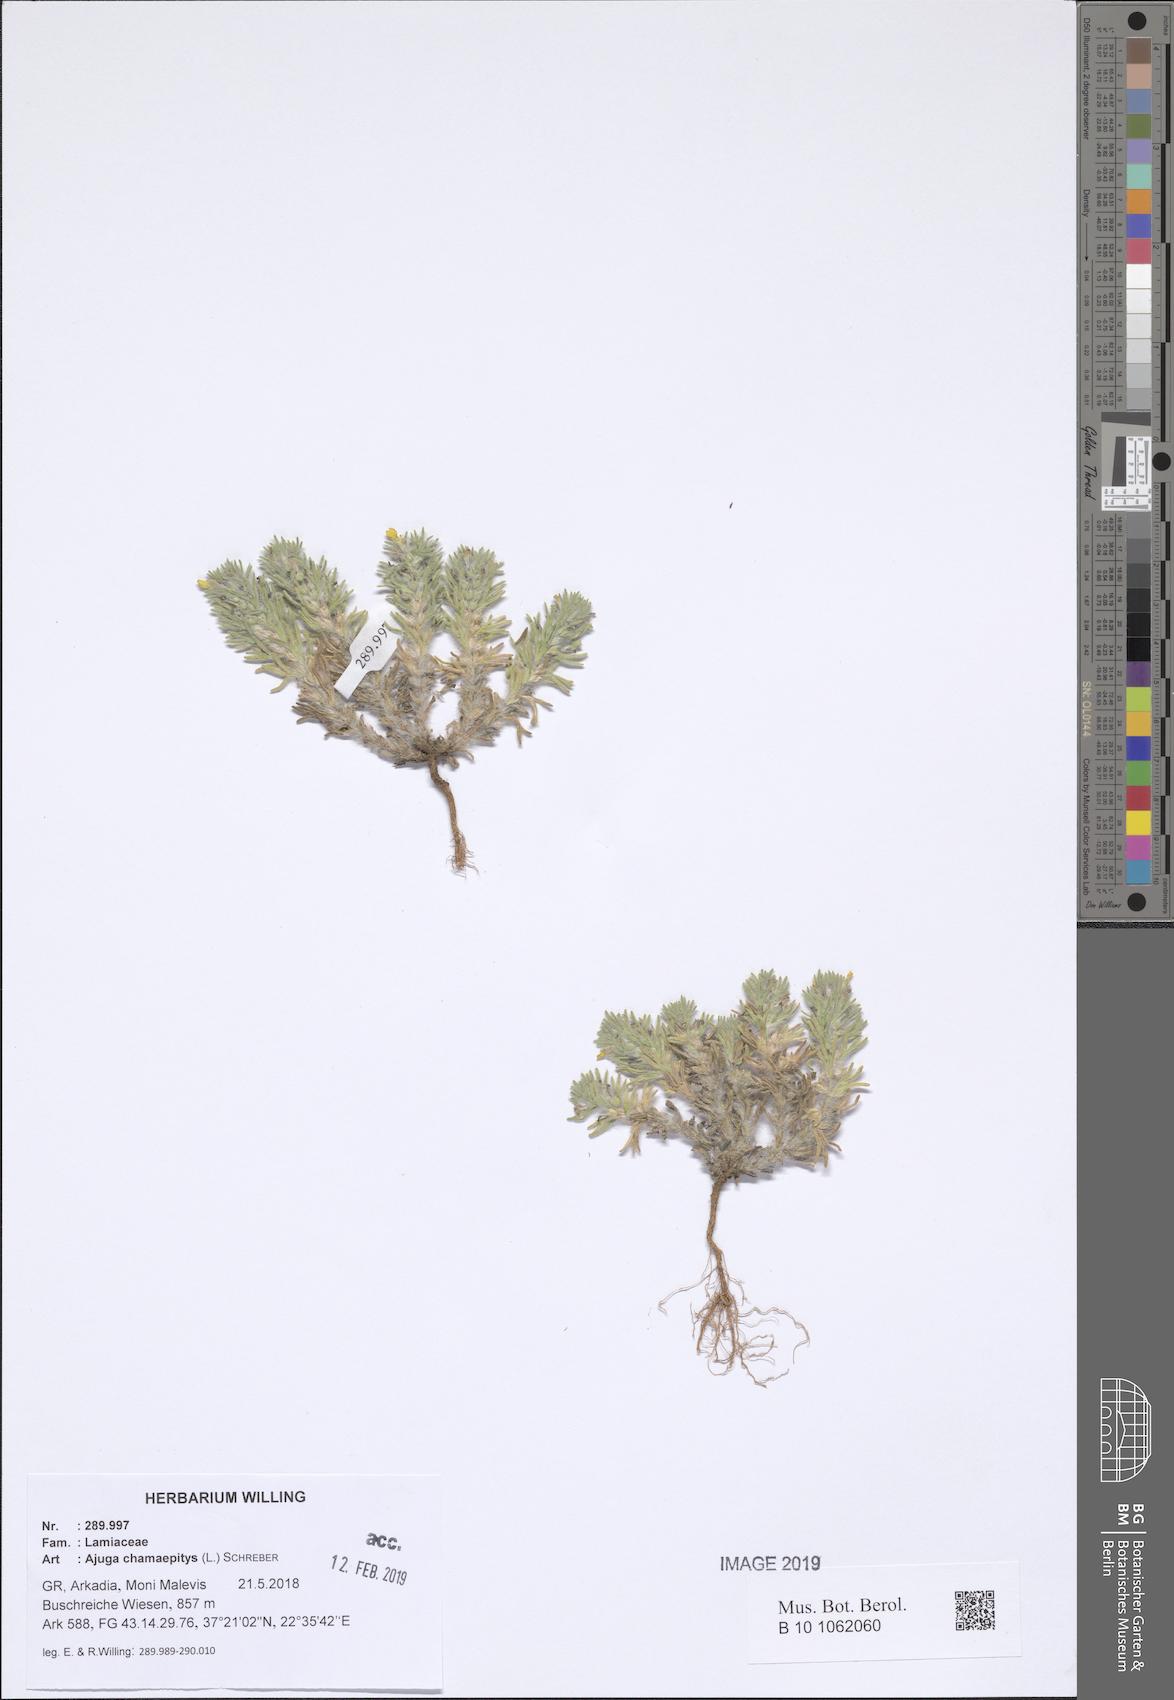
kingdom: Plantae
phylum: Tracheophyta
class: Magnoliopsida
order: Lamiales
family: Lamiaceae
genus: Ajuga
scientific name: Ajuga chamaepitys
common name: Ground-pine
